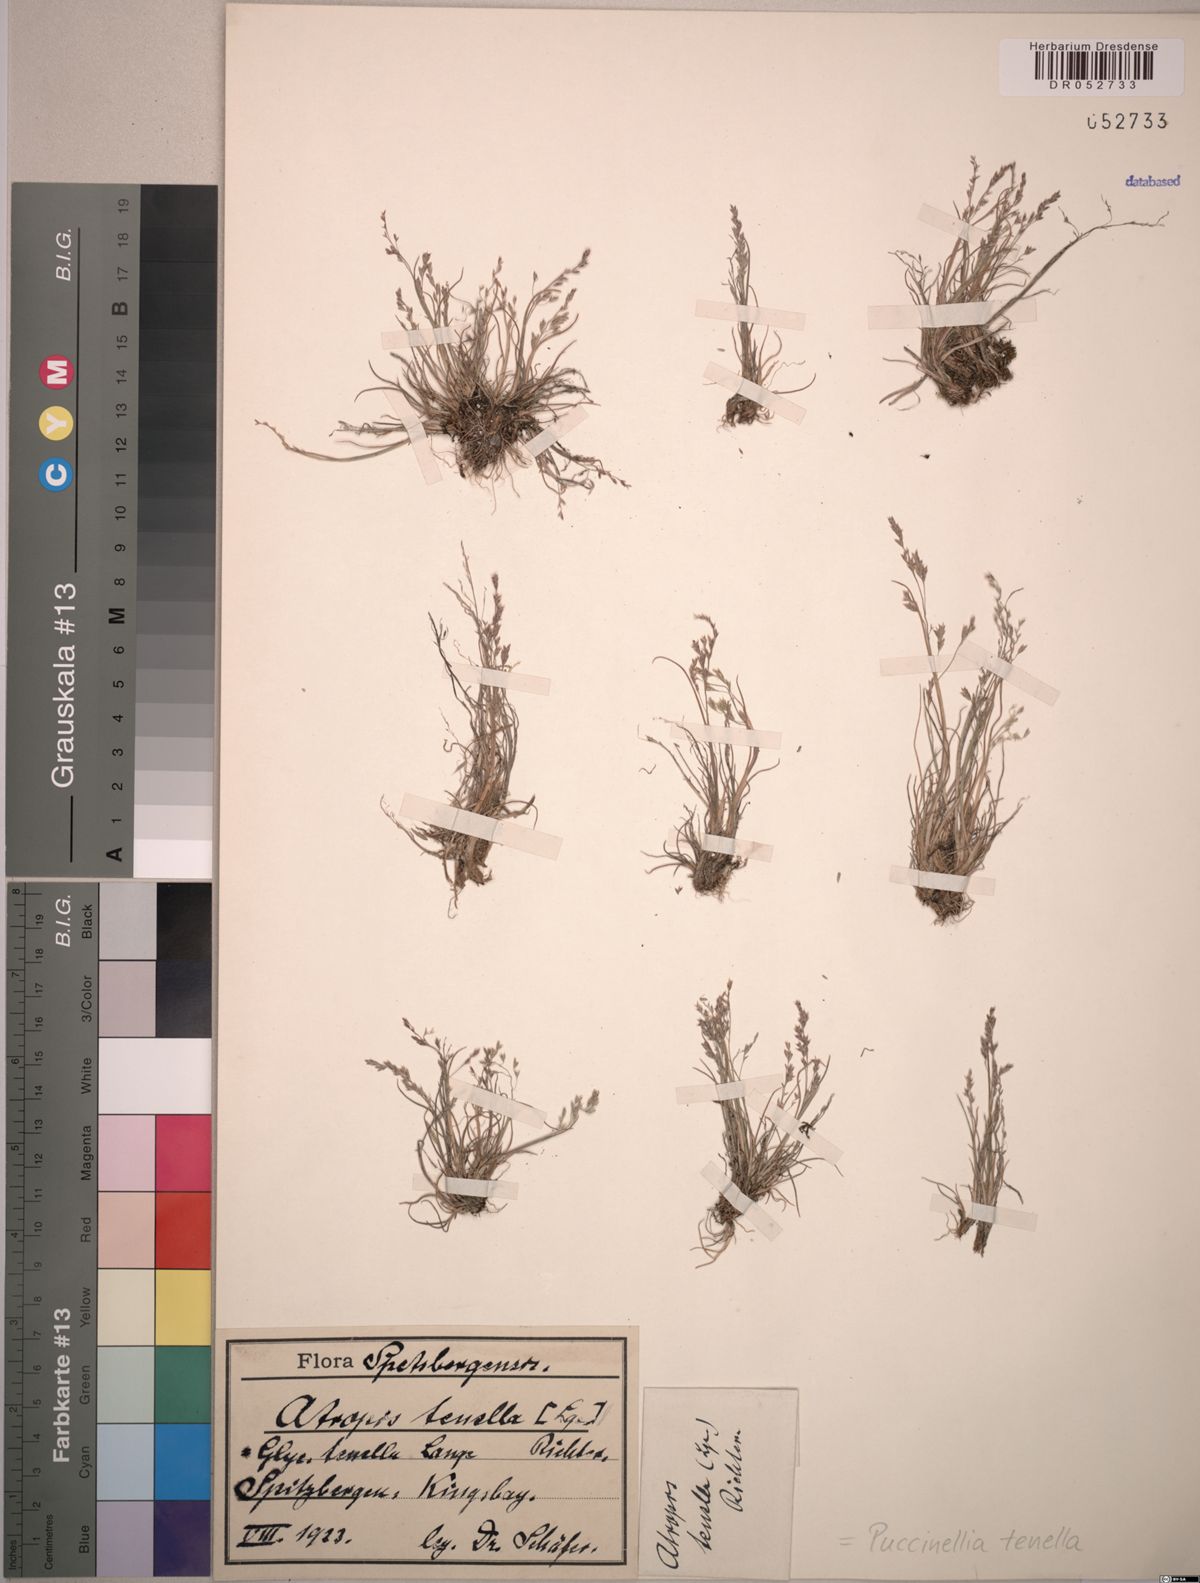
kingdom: Plantae
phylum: Tracheophyta
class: Liliopsida
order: Poales
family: Poaceae
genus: Puccinellia
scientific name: Puccinellia tenella
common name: Tundra alkaligrass
